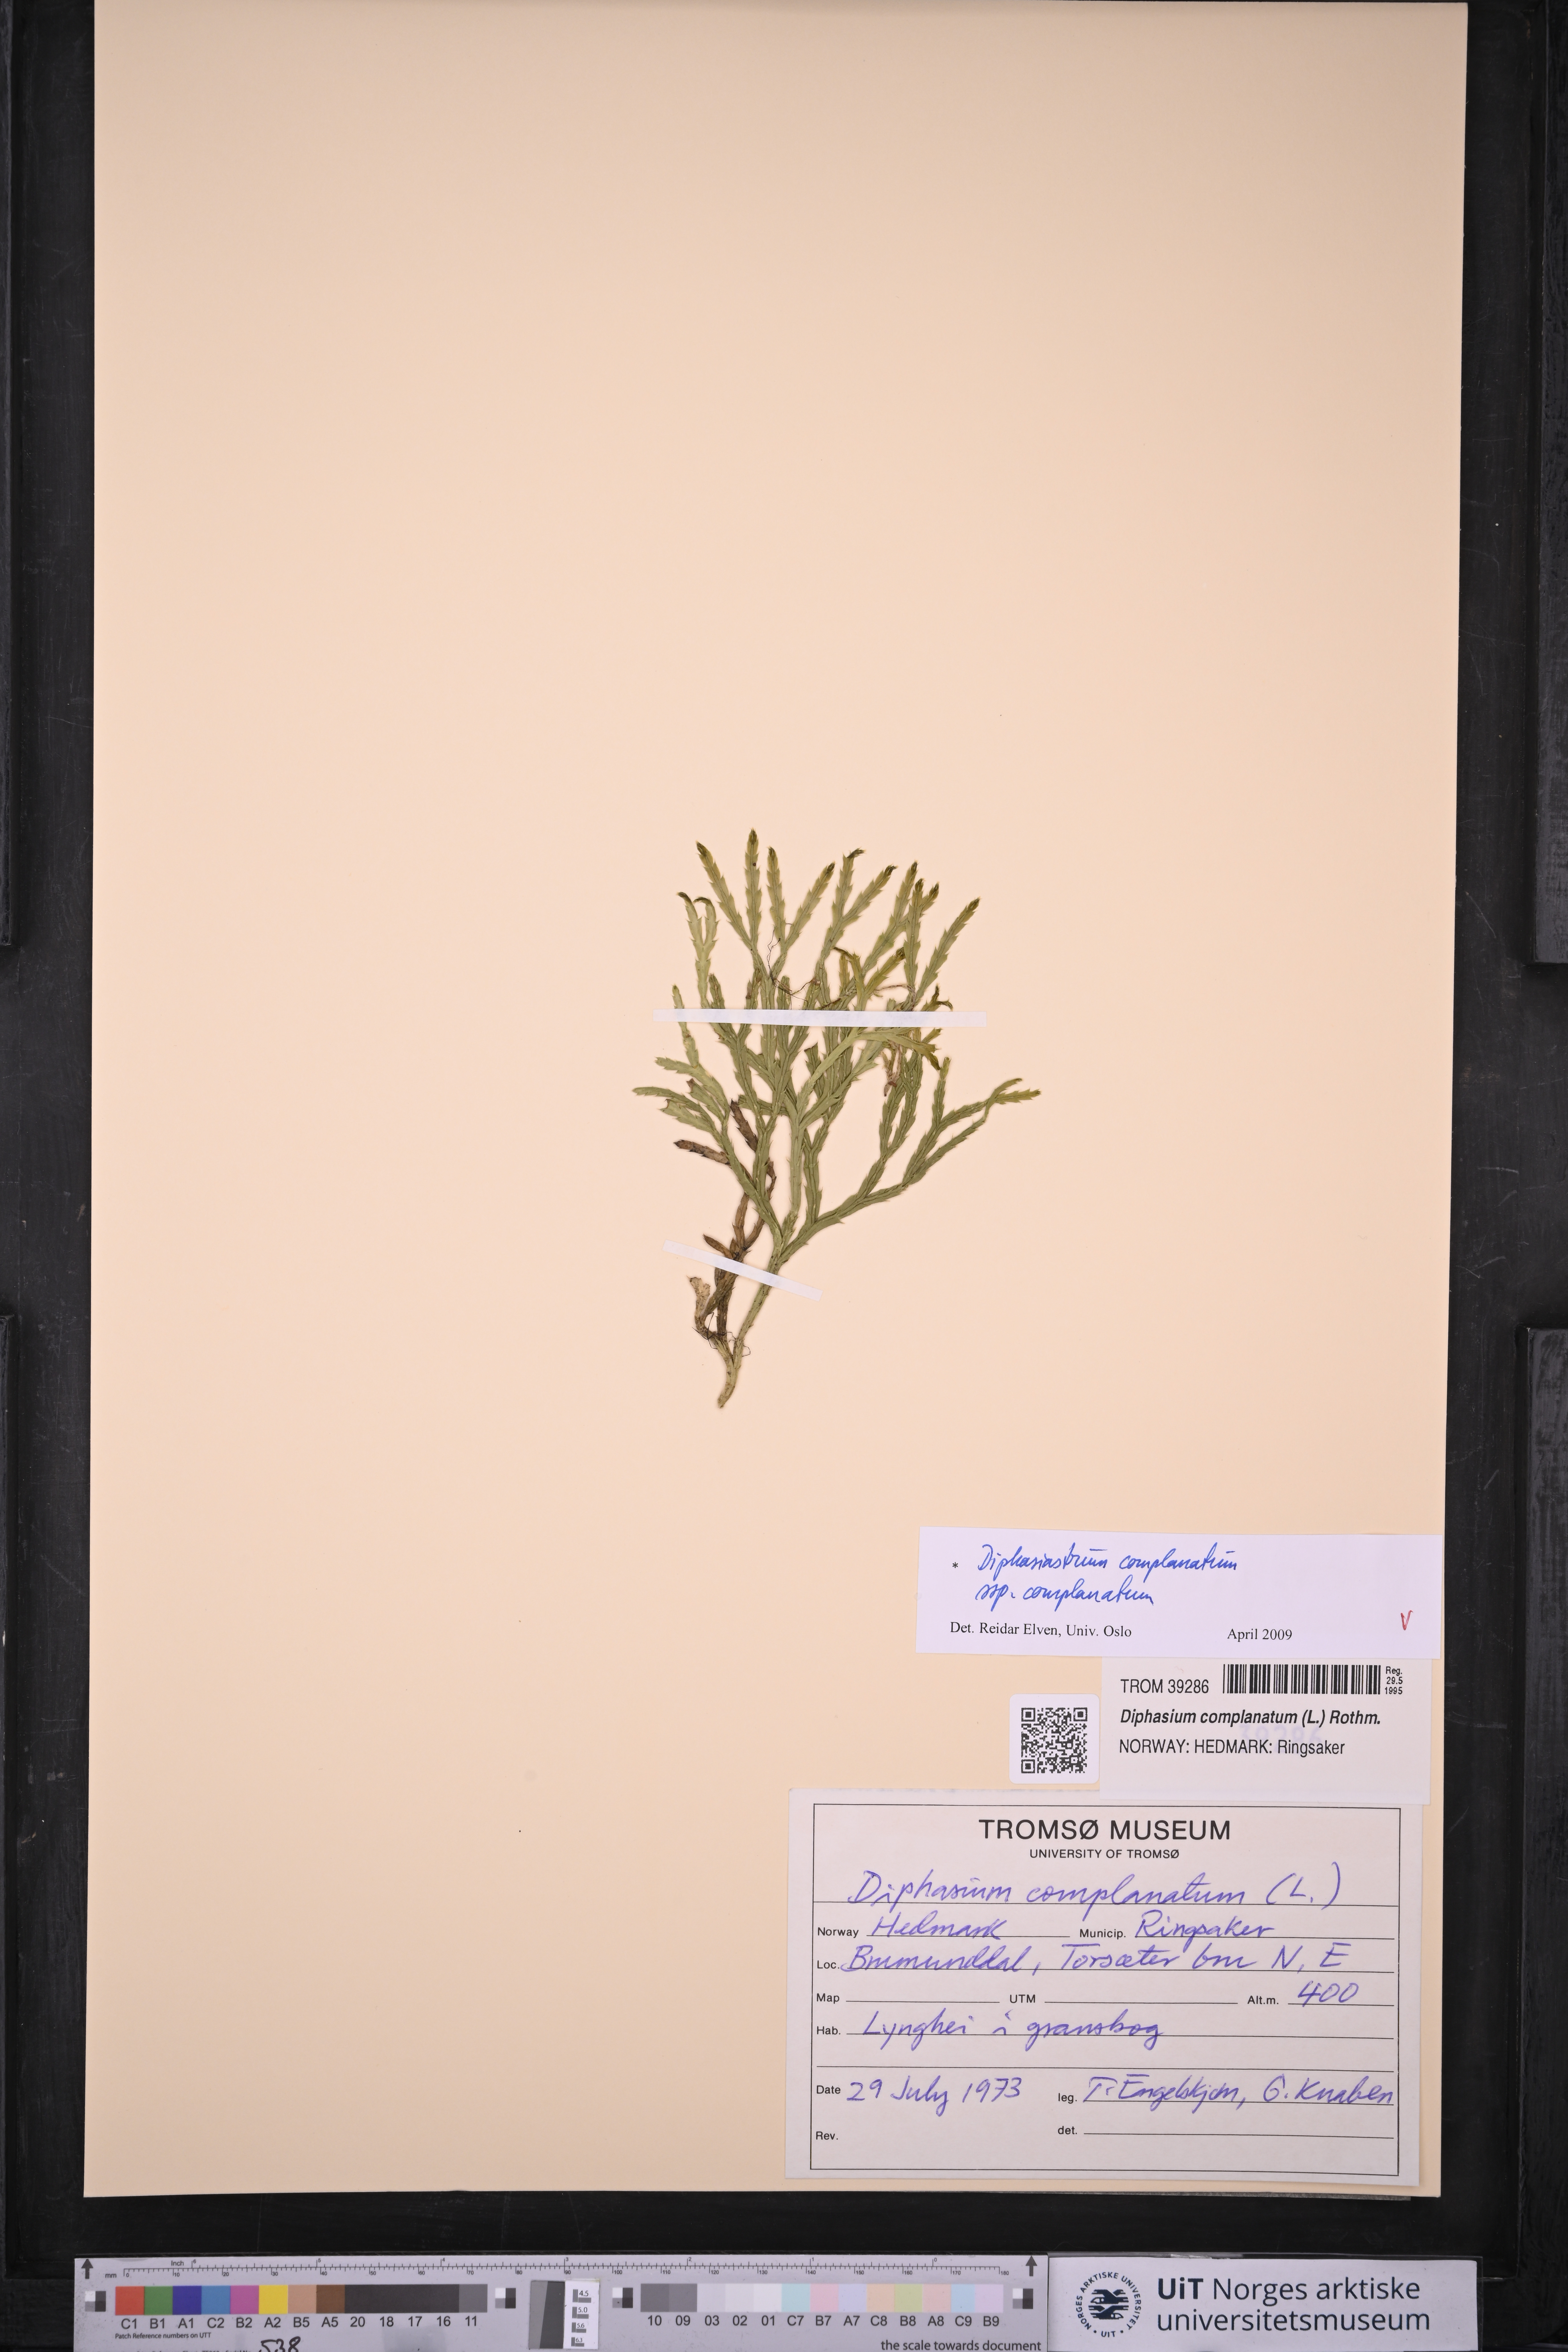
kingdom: Plantae
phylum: Tracheophyta
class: Lycopodiopsida
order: Lycopodiales
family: Lycopodiaceae
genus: Diphasiastrum
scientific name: Diphasiastrum complanatum
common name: Northern running-pine
